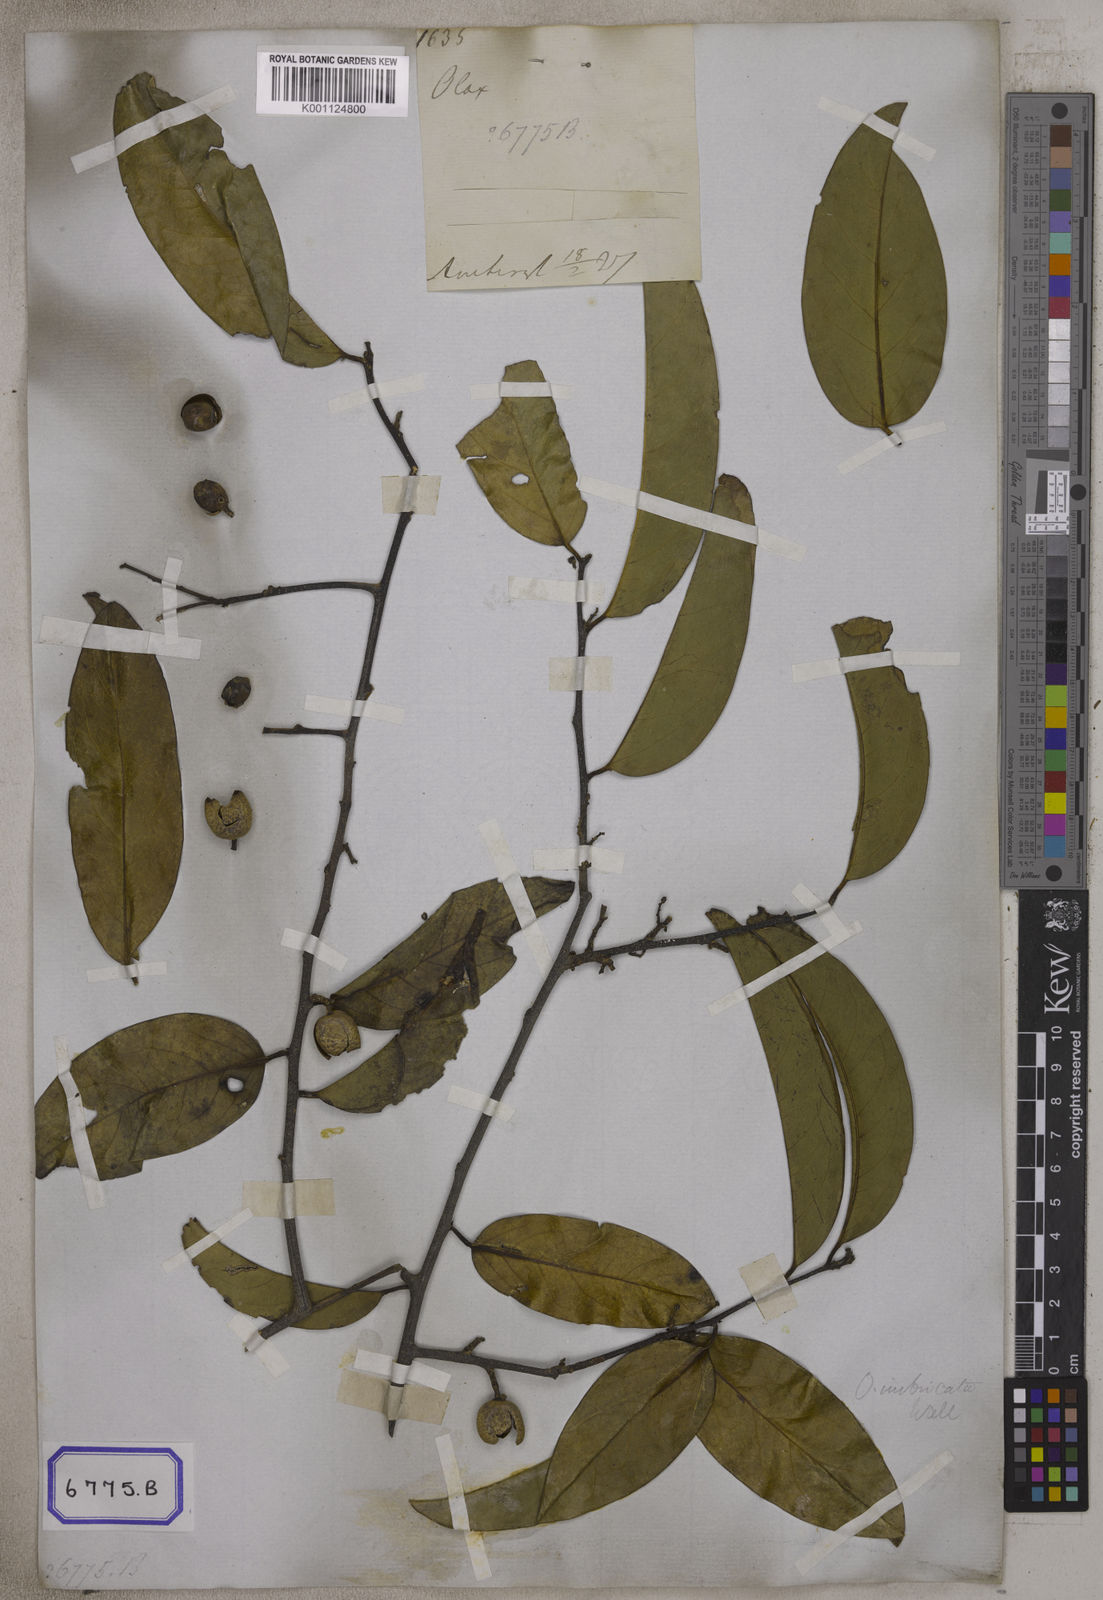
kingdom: Plantae
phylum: Tracheophyta
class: Magnoliopsida
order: Santalales
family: Olacaceae
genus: Olax
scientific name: Olax imbricata
